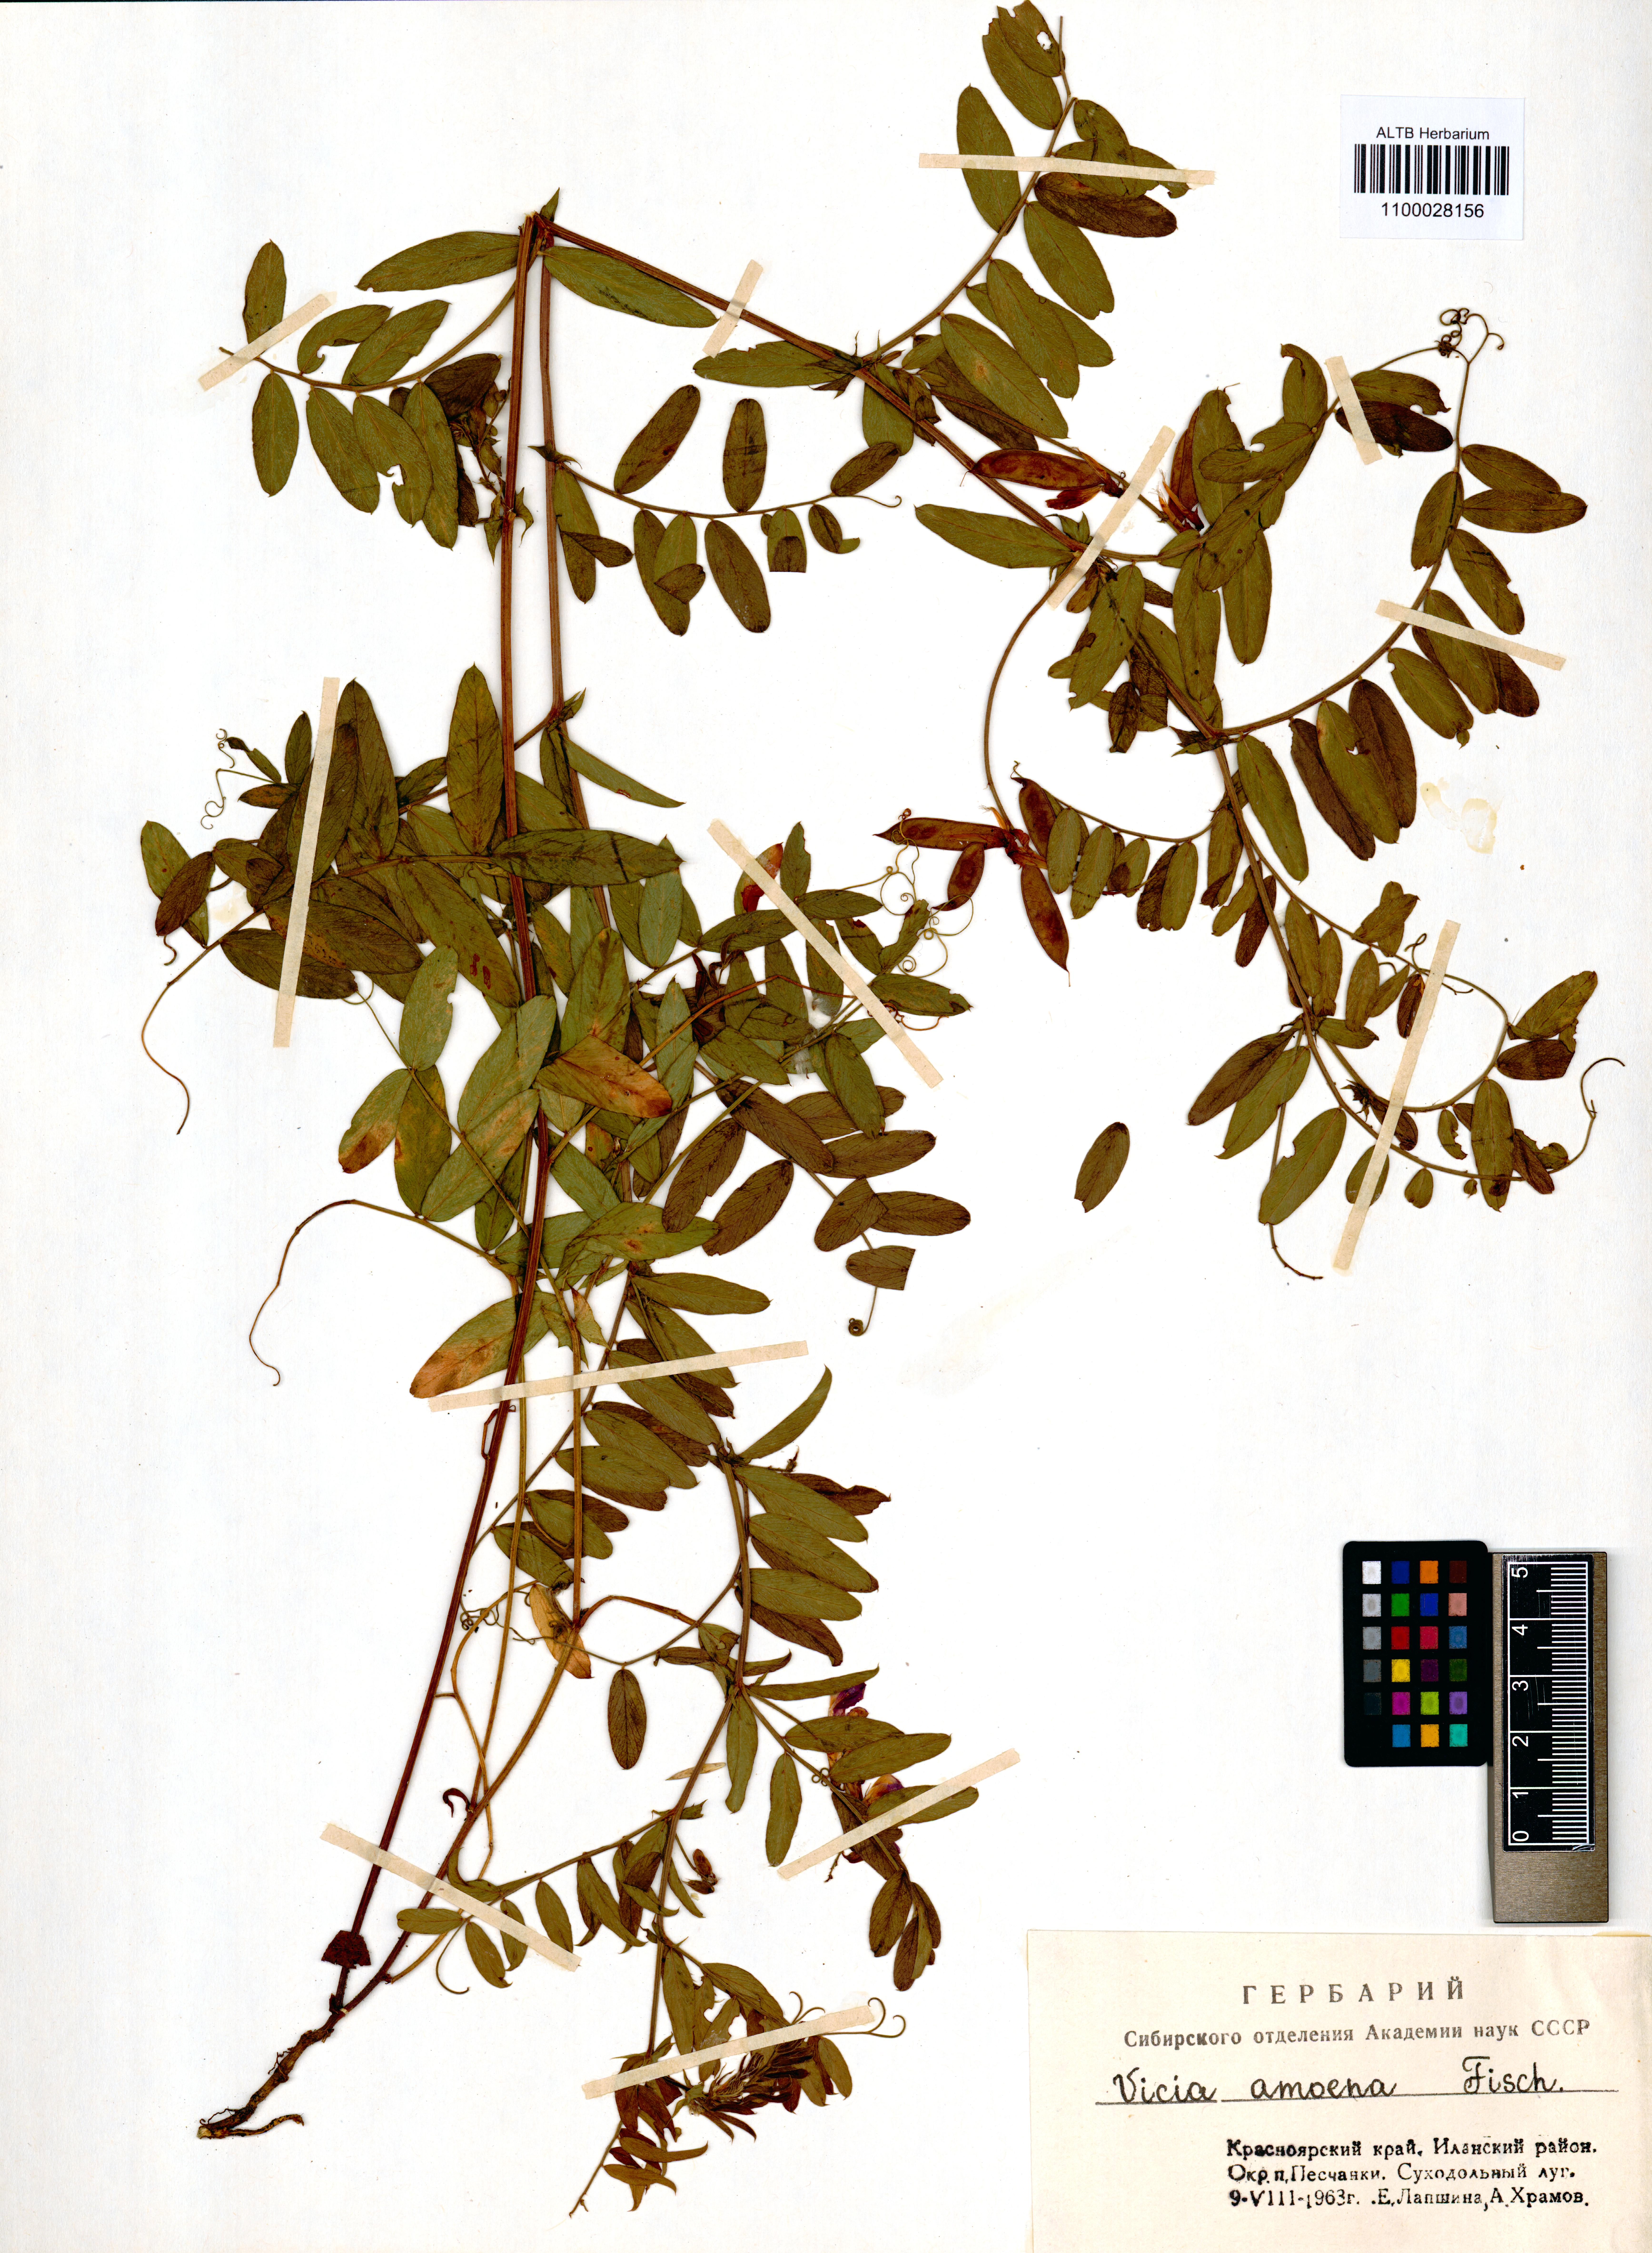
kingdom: Plantae
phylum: Tracheophyta
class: Magnoliopsida
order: Fabales
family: Fabaceae
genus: Vicia
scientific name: Vicia amoena
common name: Cheder ebs
